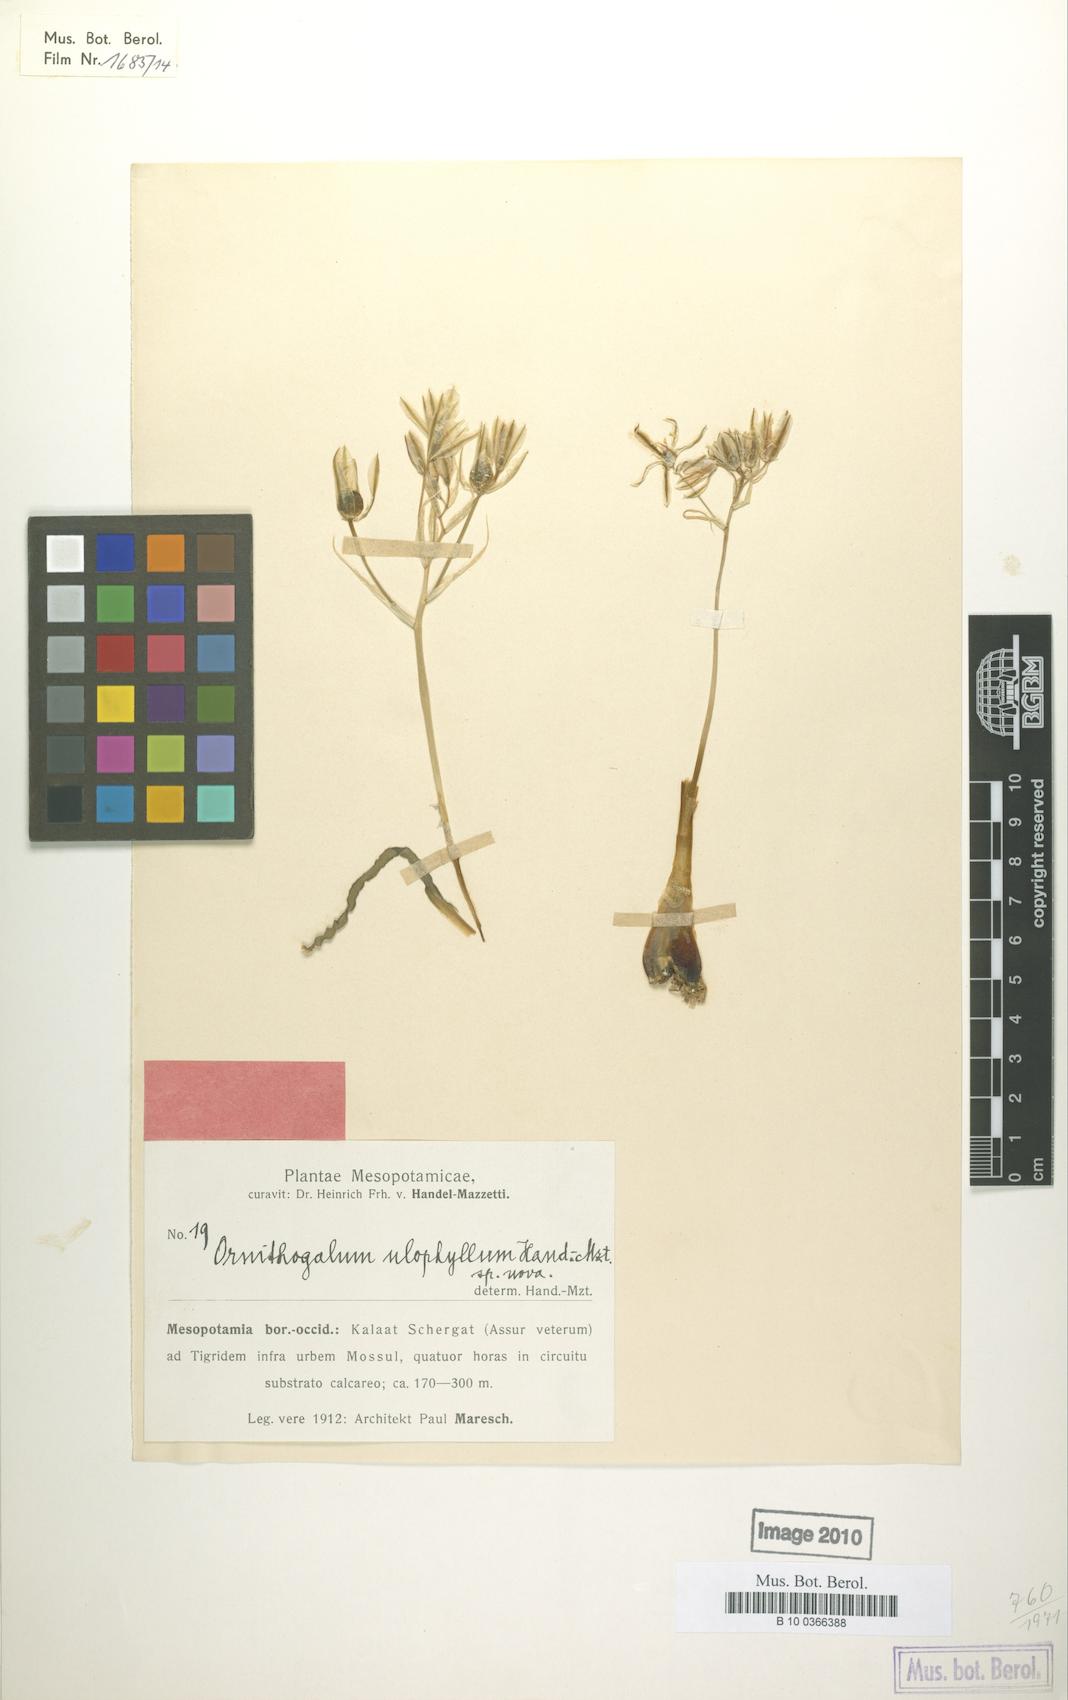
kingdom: Plantae
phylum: Tracheophyta
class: Liliopsida
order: Asparagales
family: Asparagaceae
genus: Ornithogalum
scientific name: Ornithogalum neurostegium
